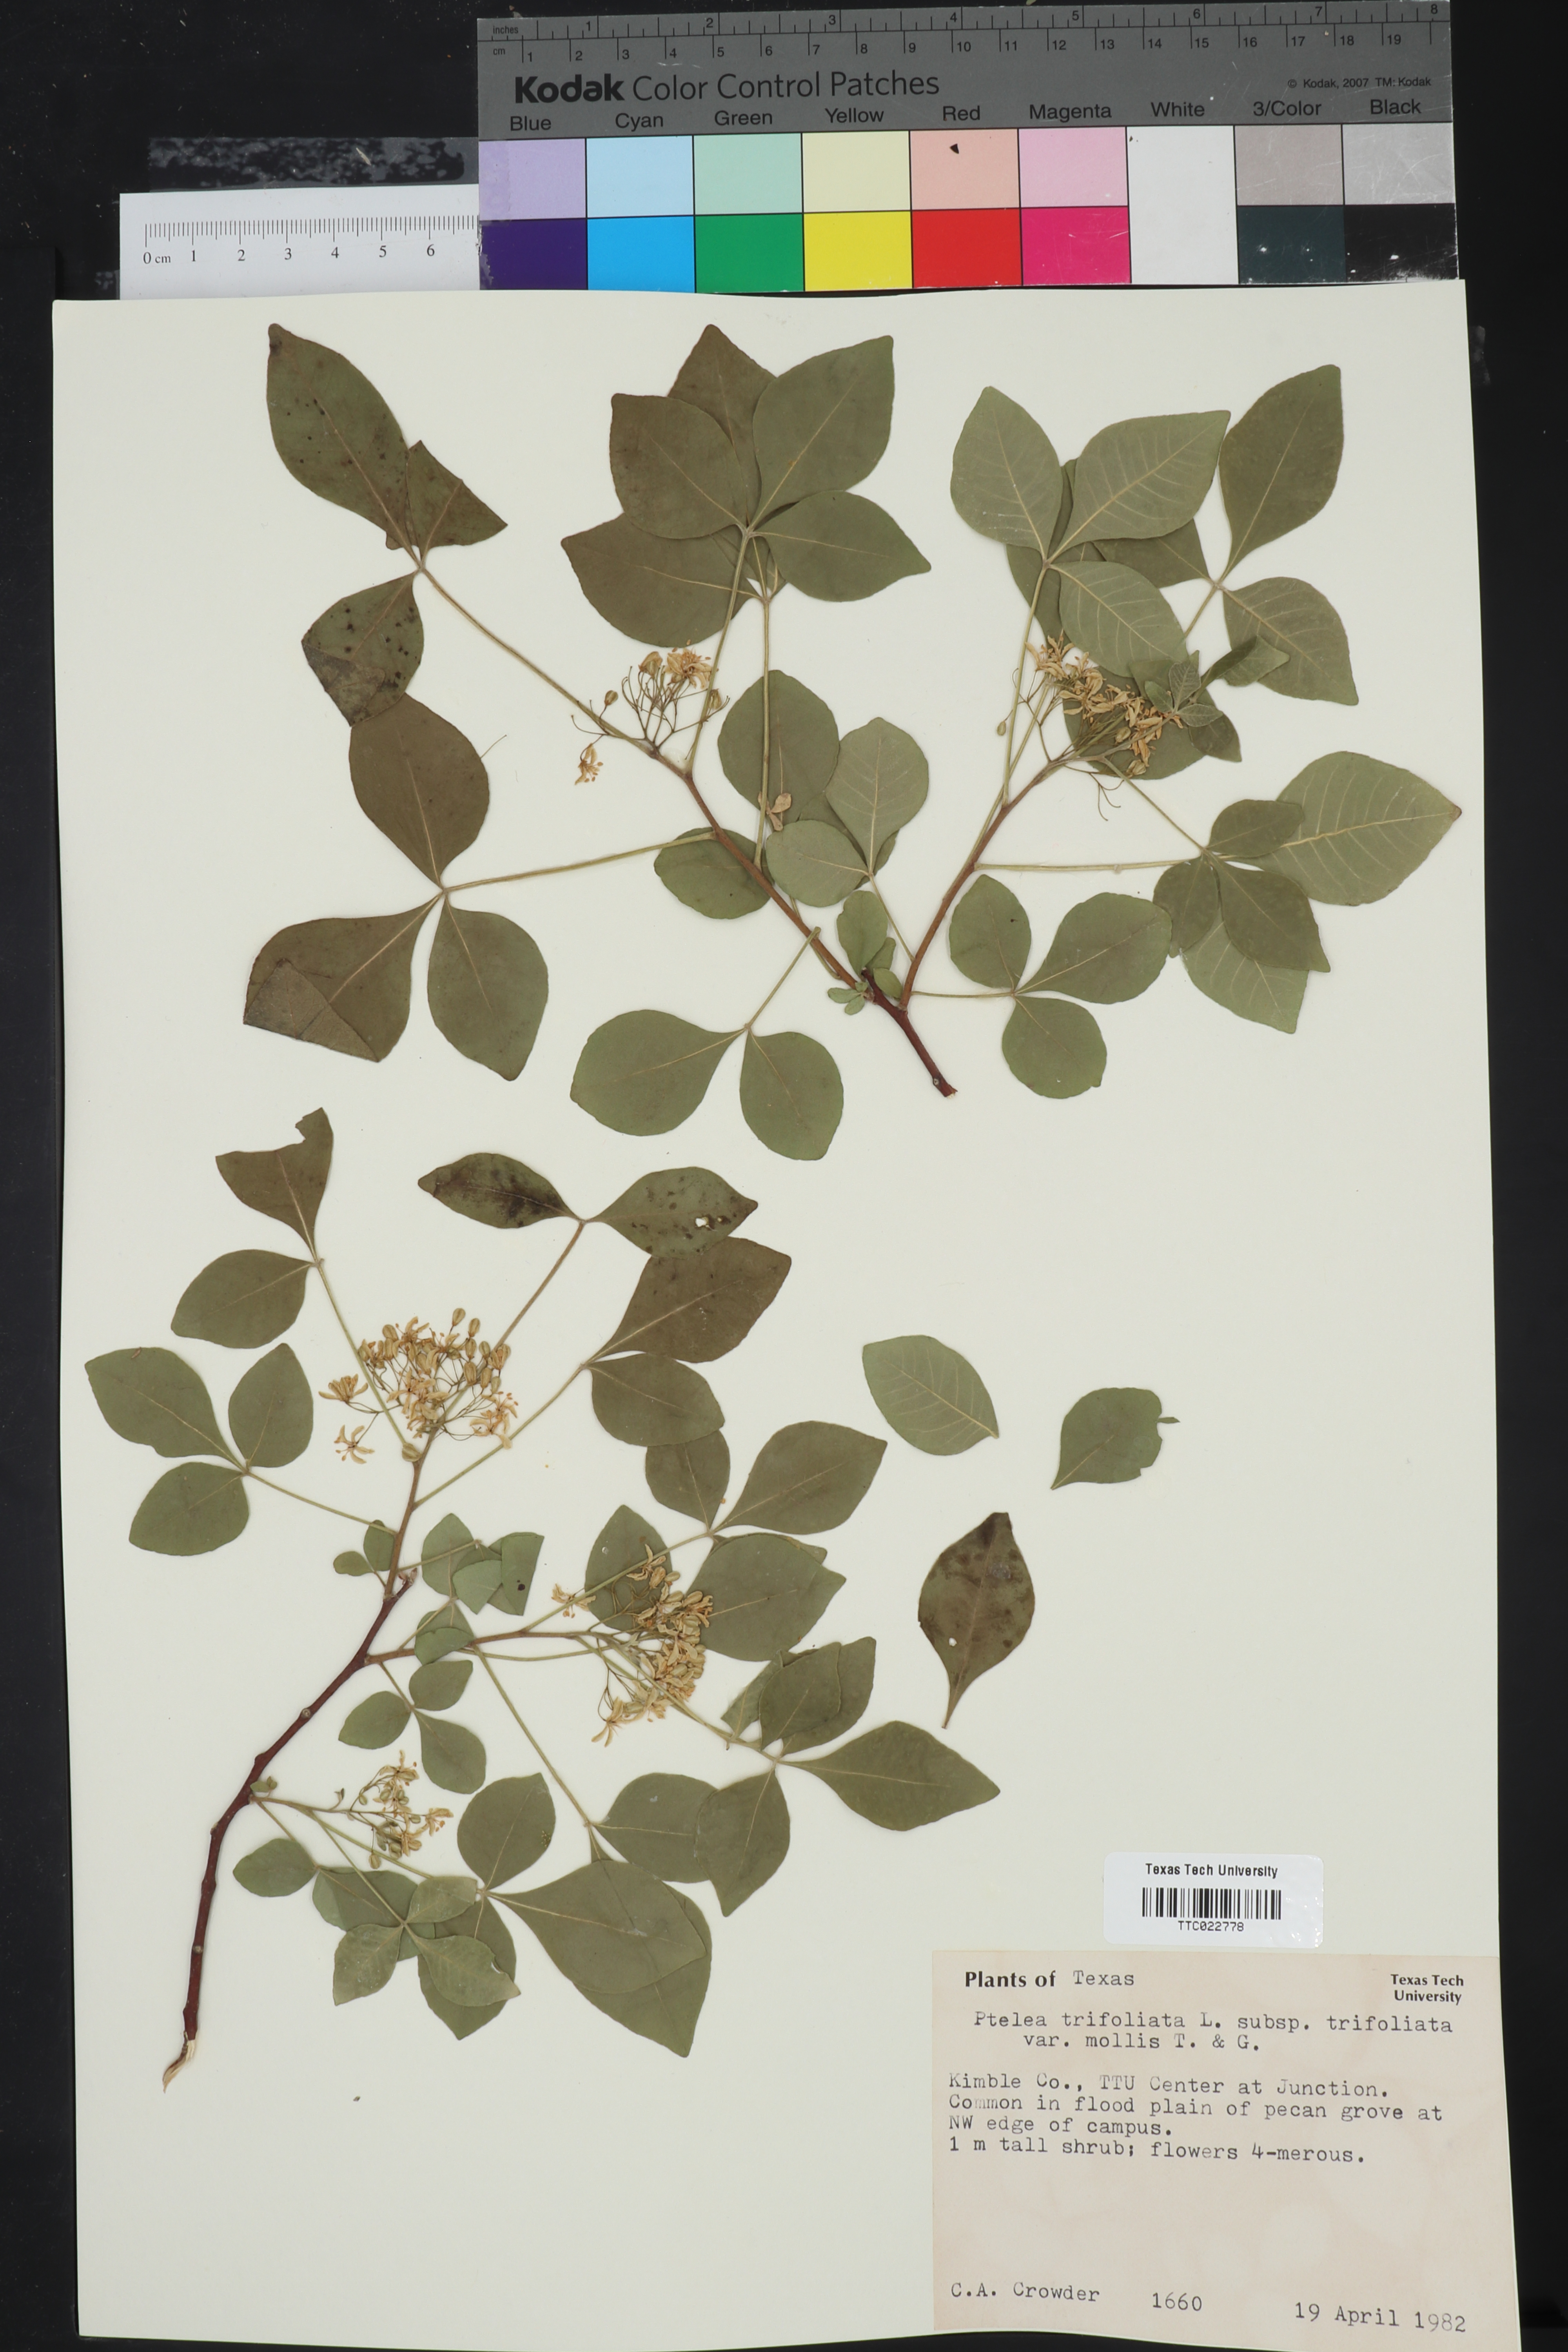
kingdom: Plantae
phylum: Tracheophyta
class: Magnoliopsida
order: Sapindales
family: Rutaceae
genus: Ptelea
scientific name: Ptelea trifoliata
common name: Common hop-tree
